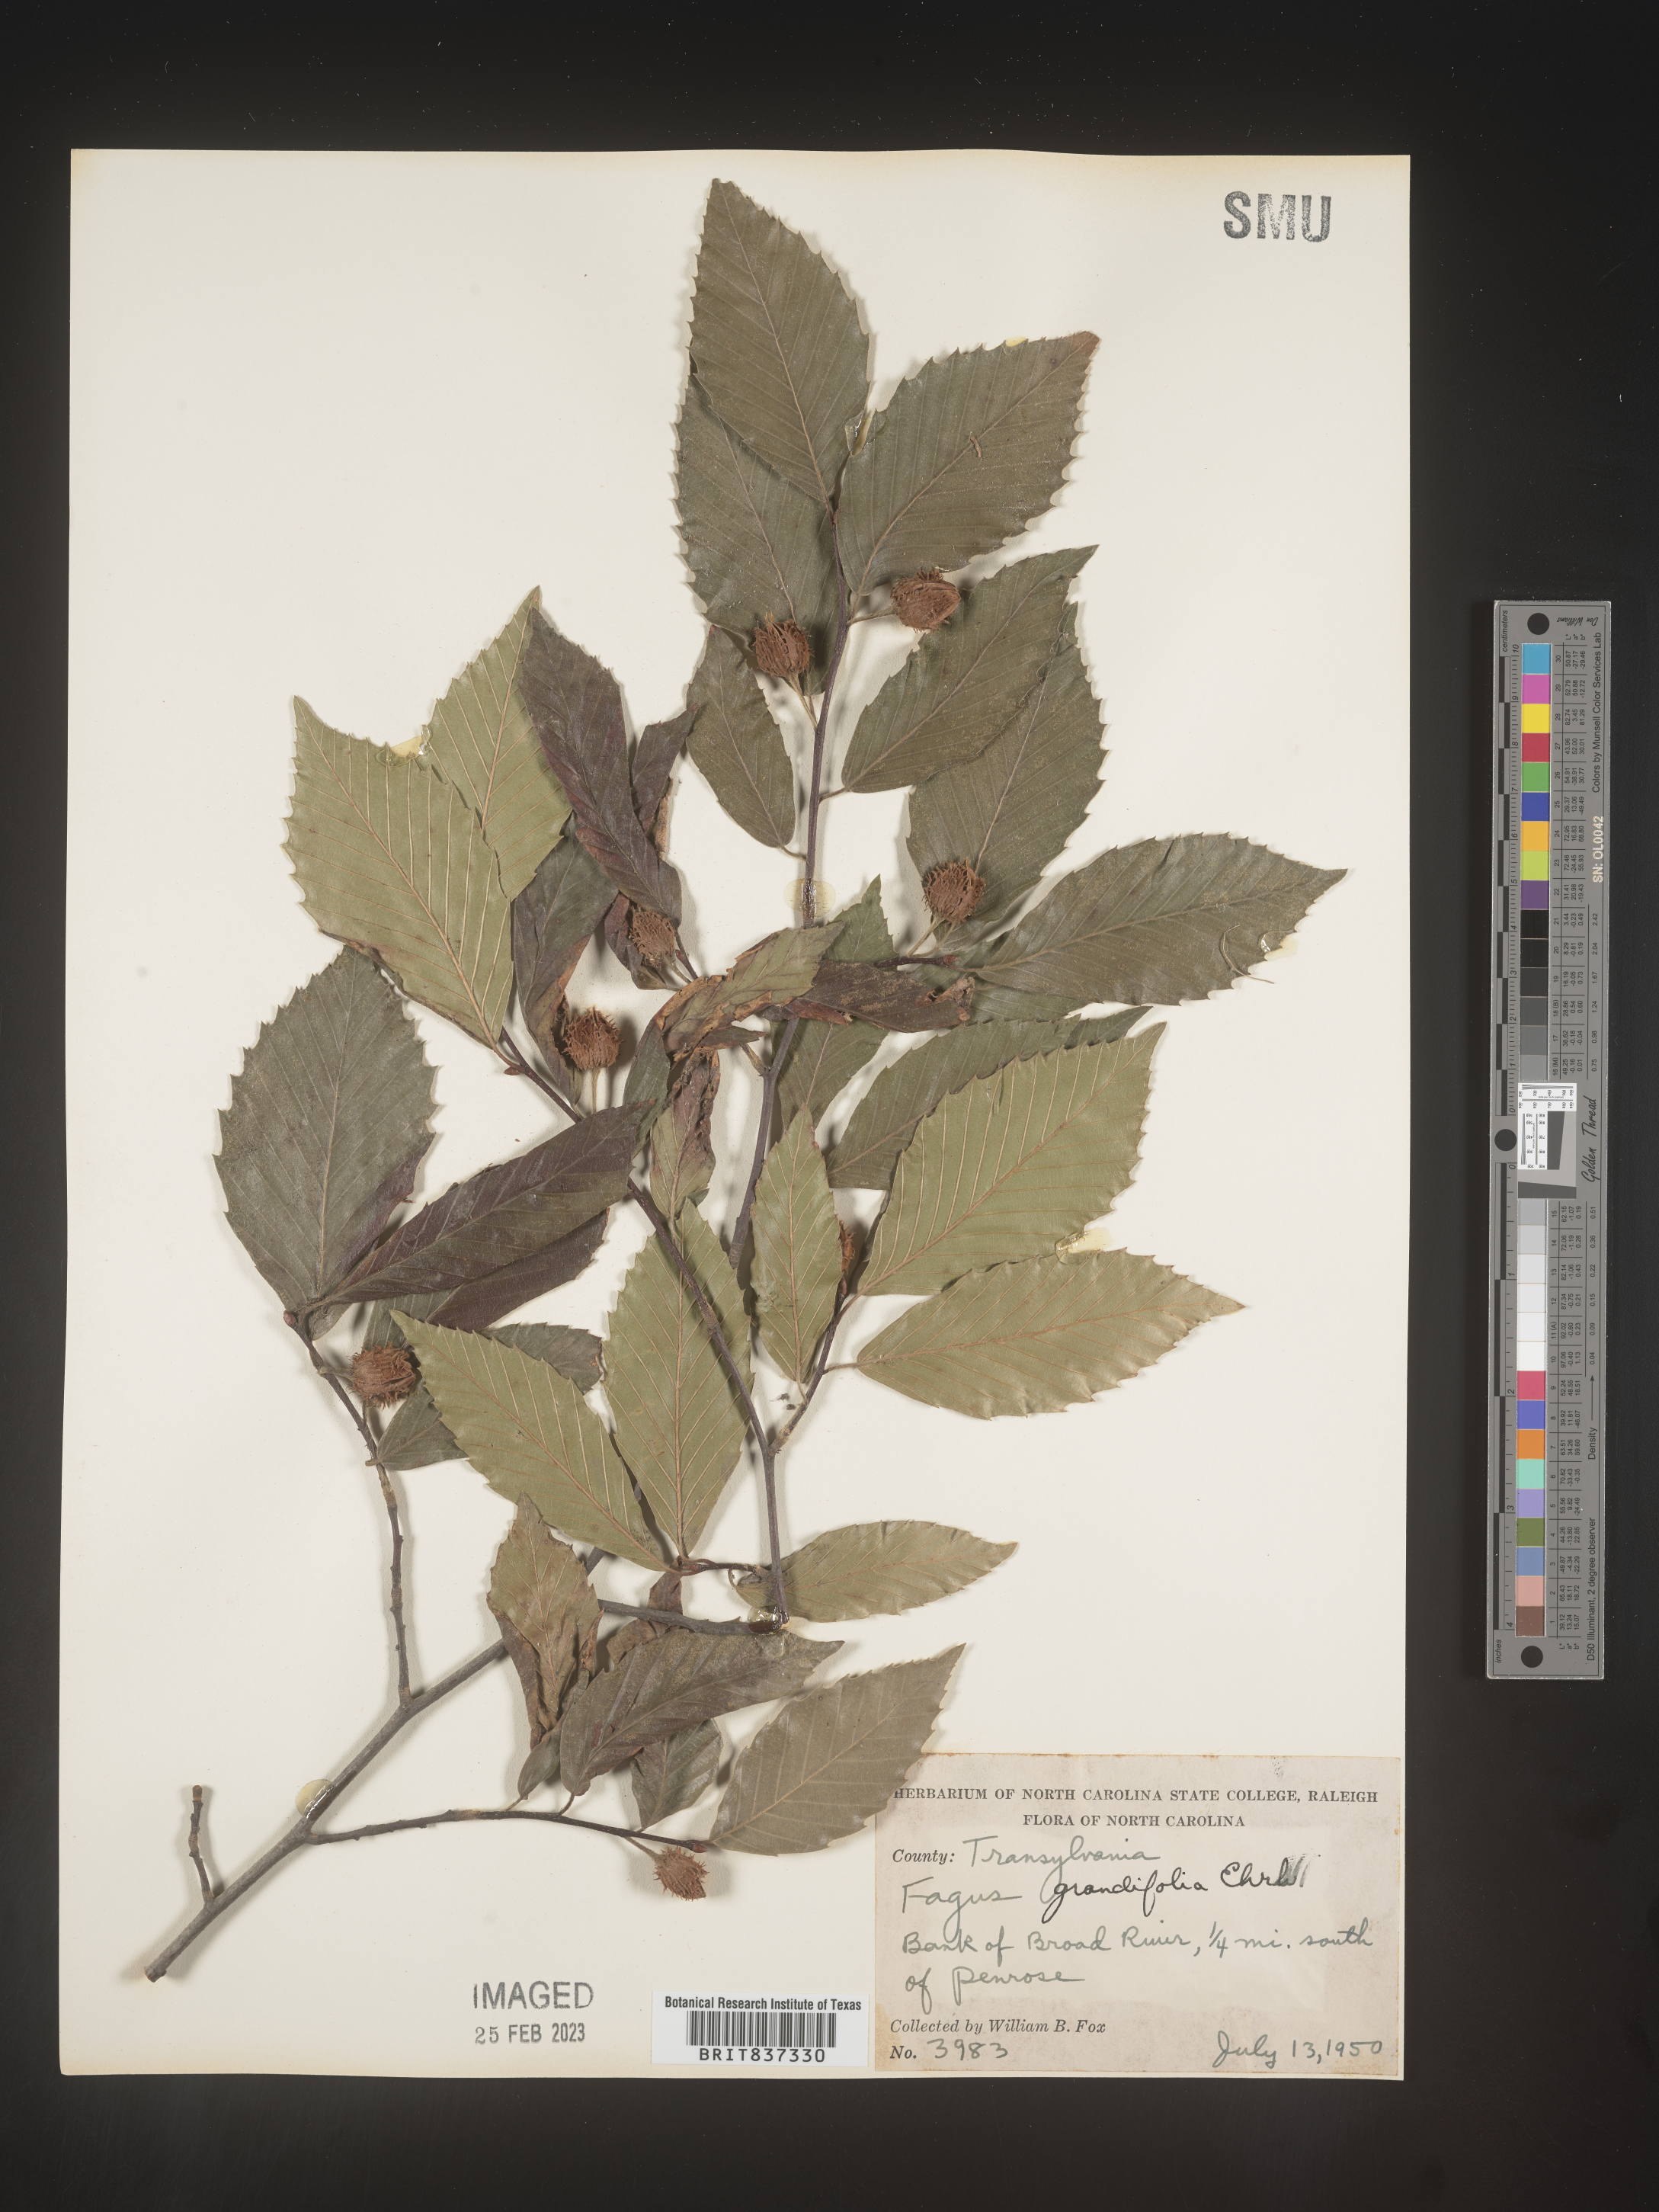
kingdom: Plantae
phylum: Tracheophyta
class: Magnoliopsida
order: Fagales
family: Fagaceae
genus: Fagus
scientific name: Fagus grandifolia
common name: American beech
